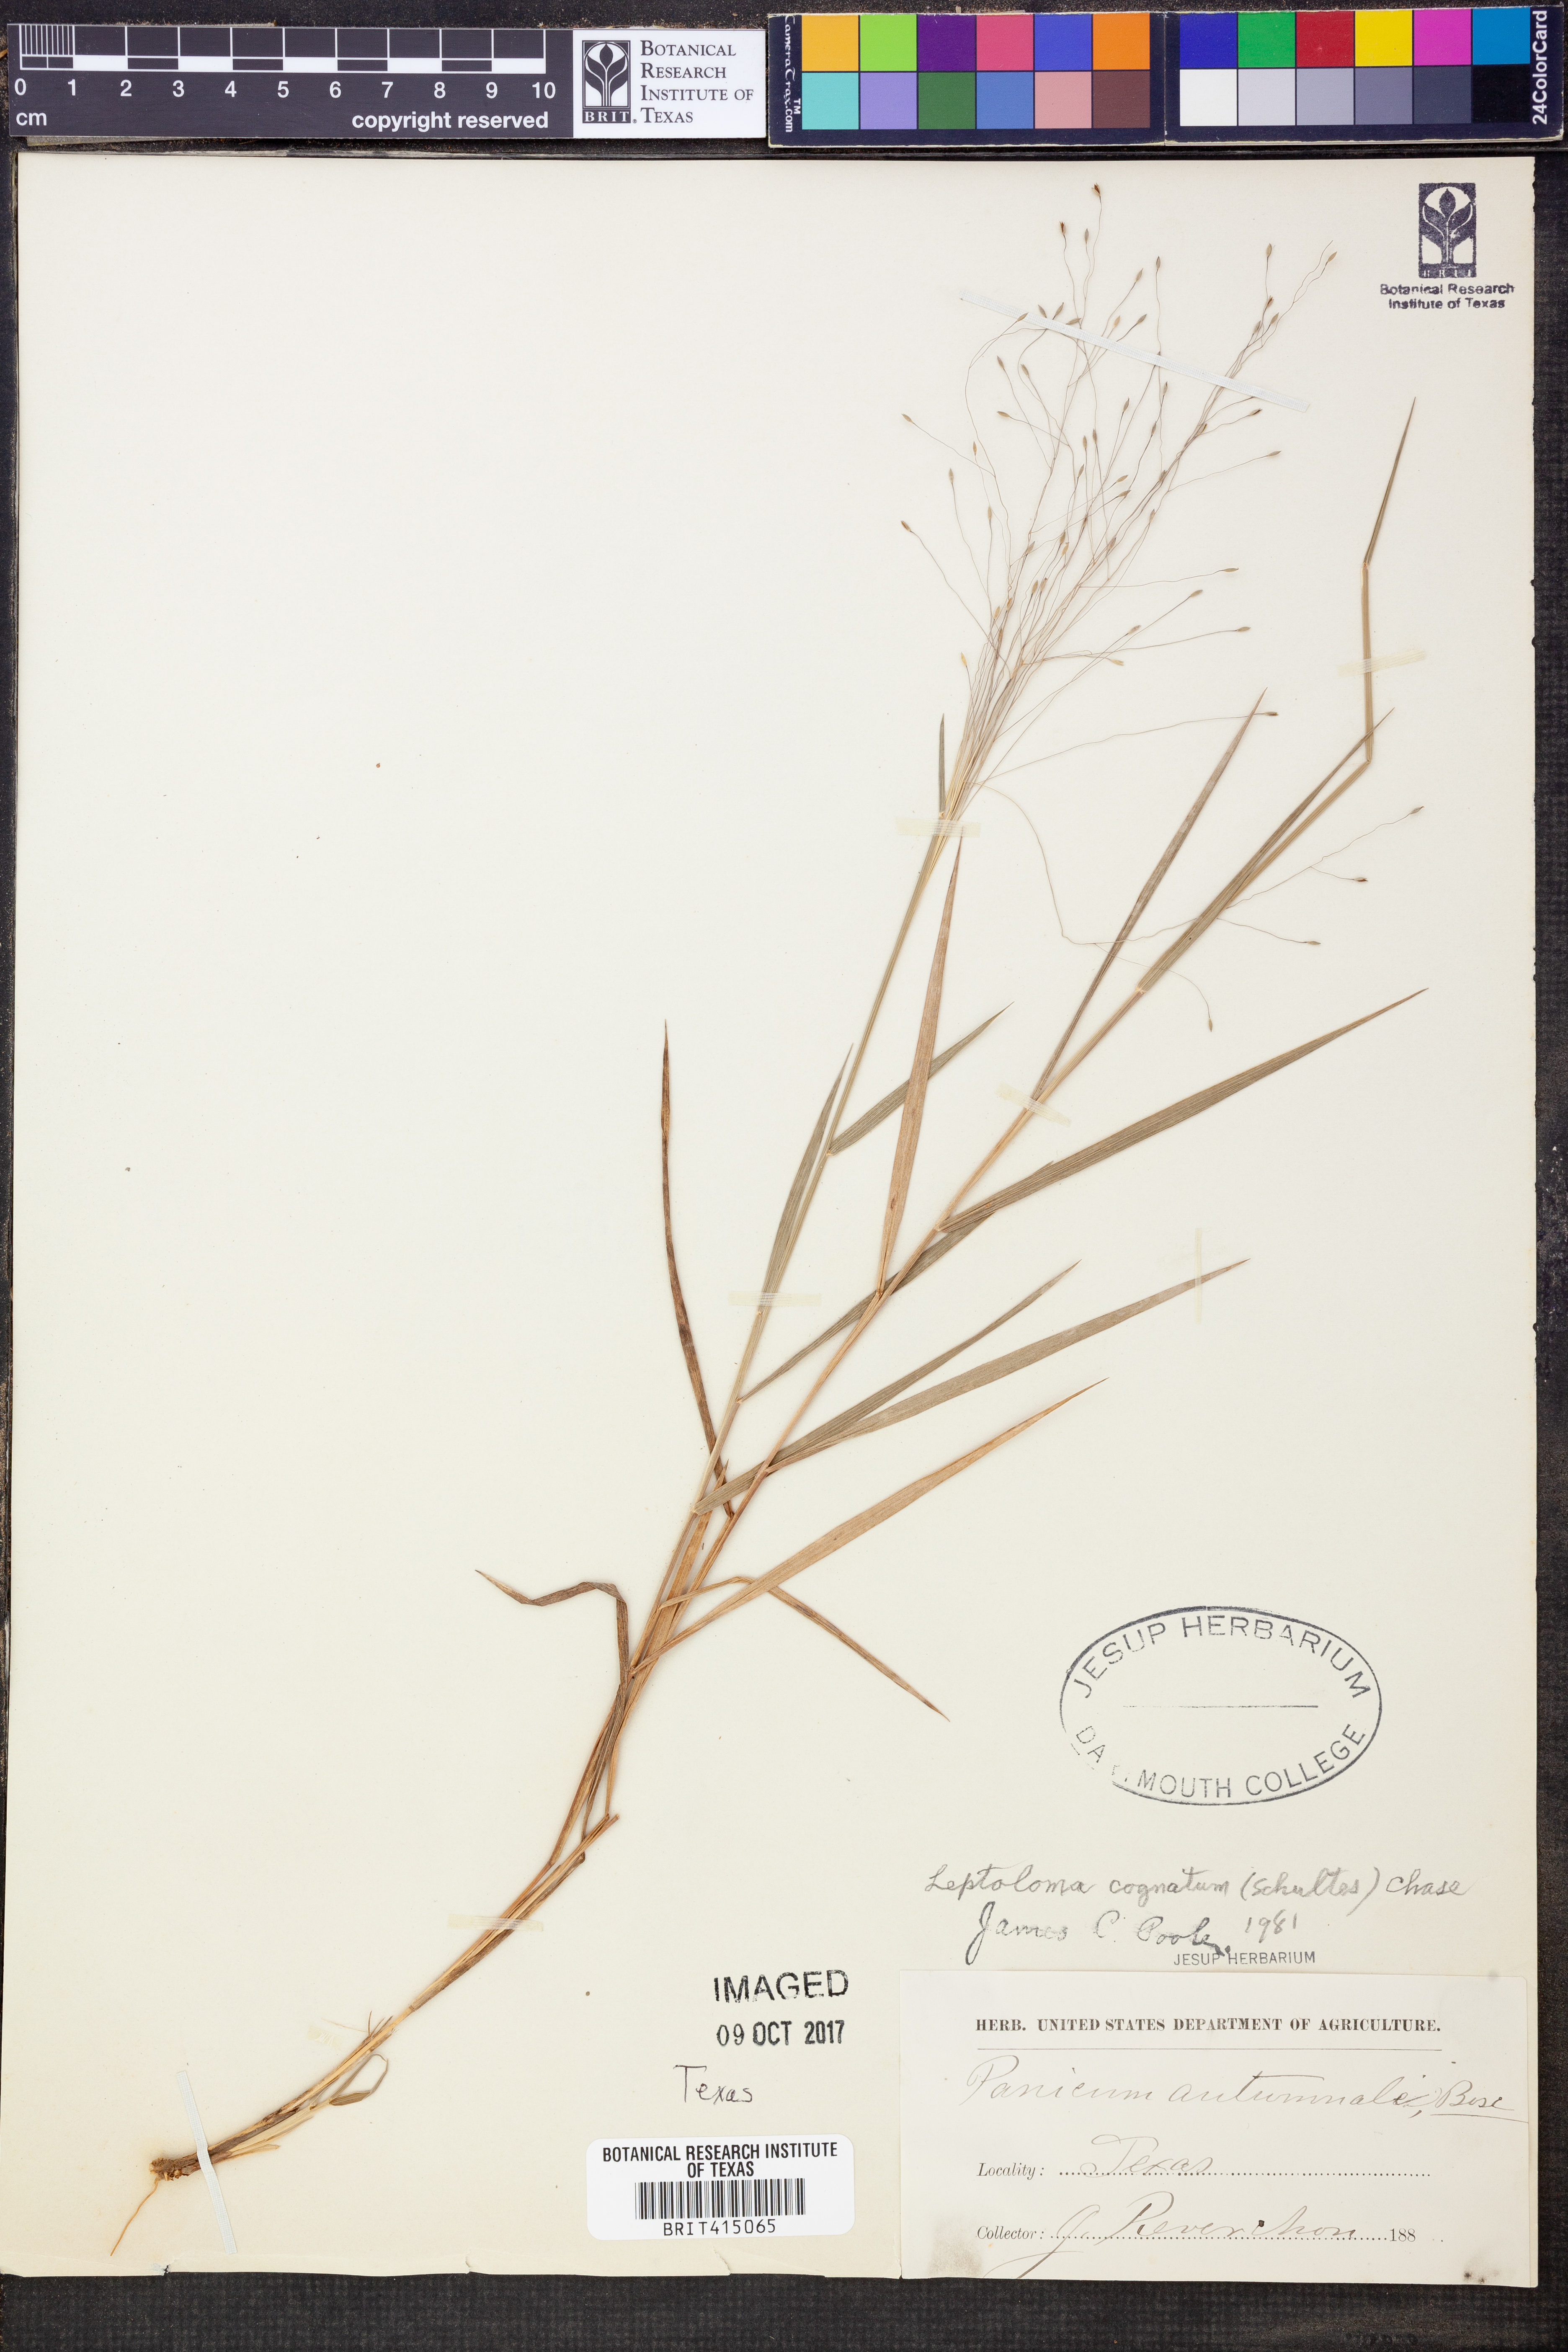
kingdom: Plantae
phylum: Tracheophyta
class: Liliopsida
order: Poales
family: Poaceae
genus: Digitaria
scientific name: Digitaria cognata
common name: Fall witchgrass
